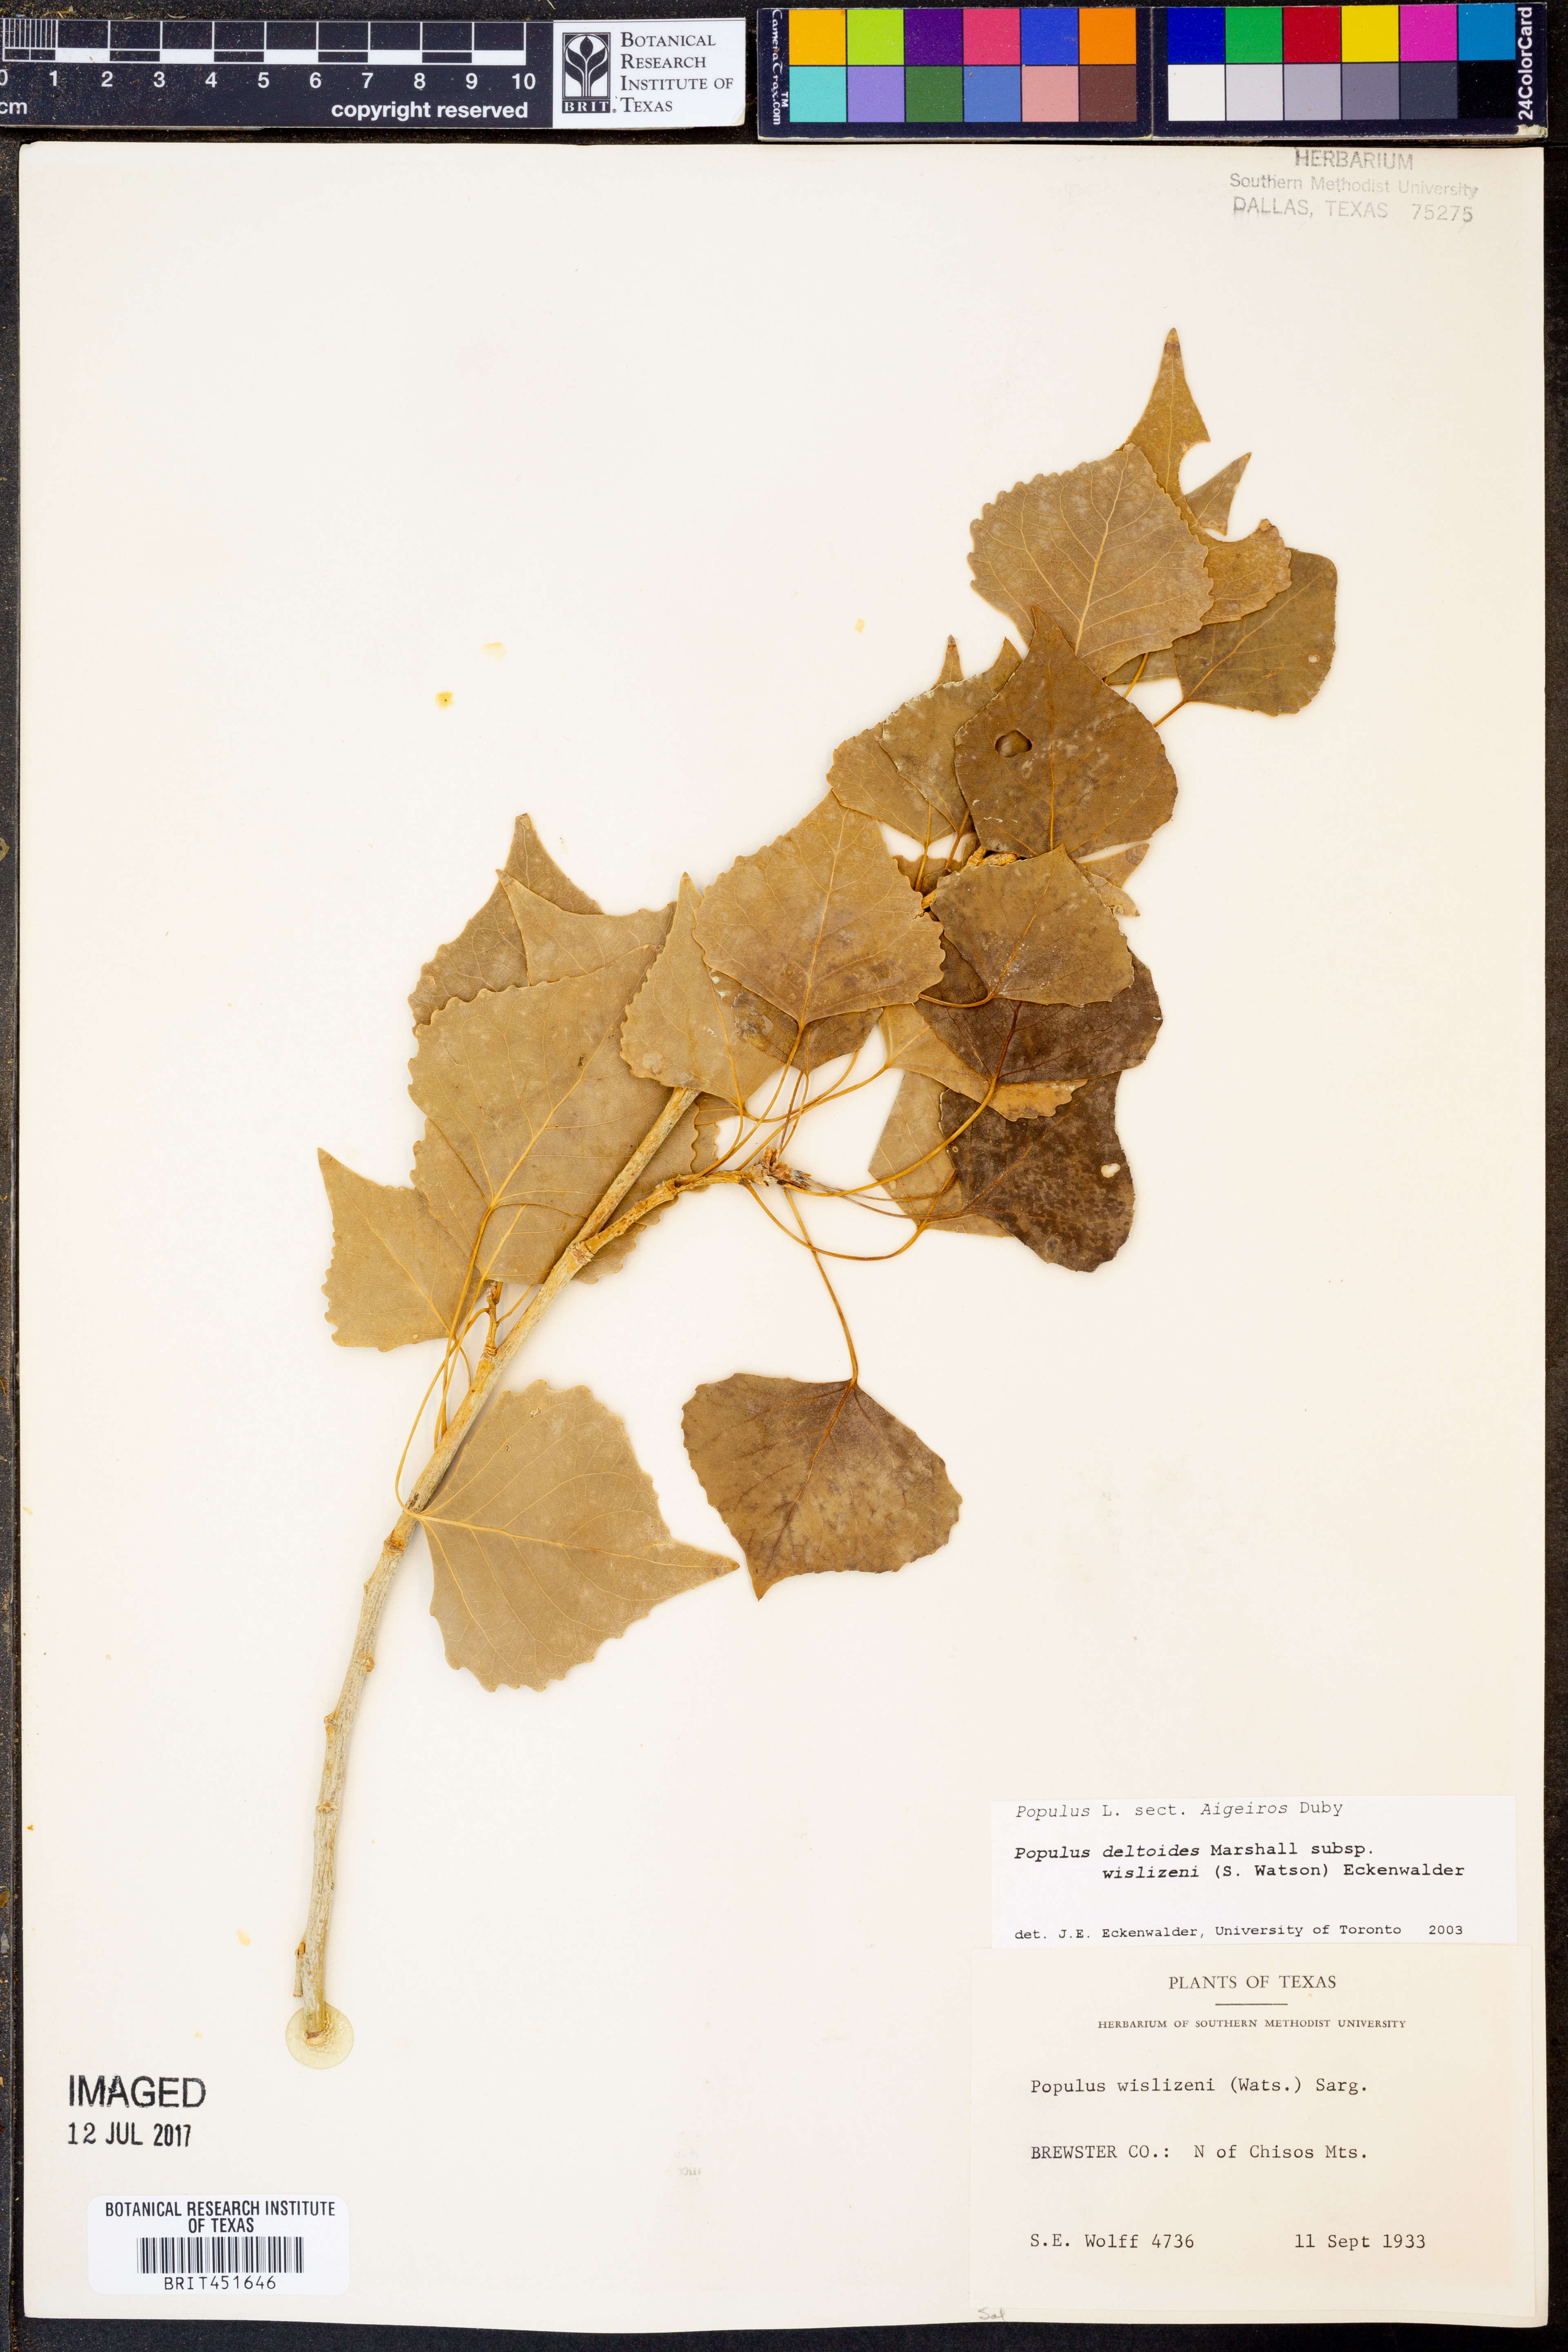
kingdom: Plantae
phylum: Tracheophyta
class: Magnoliopsida
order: Malpighiales
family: Salicaceae
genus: Populus
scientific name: Populus deltoides
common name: Eastern cottonwood
